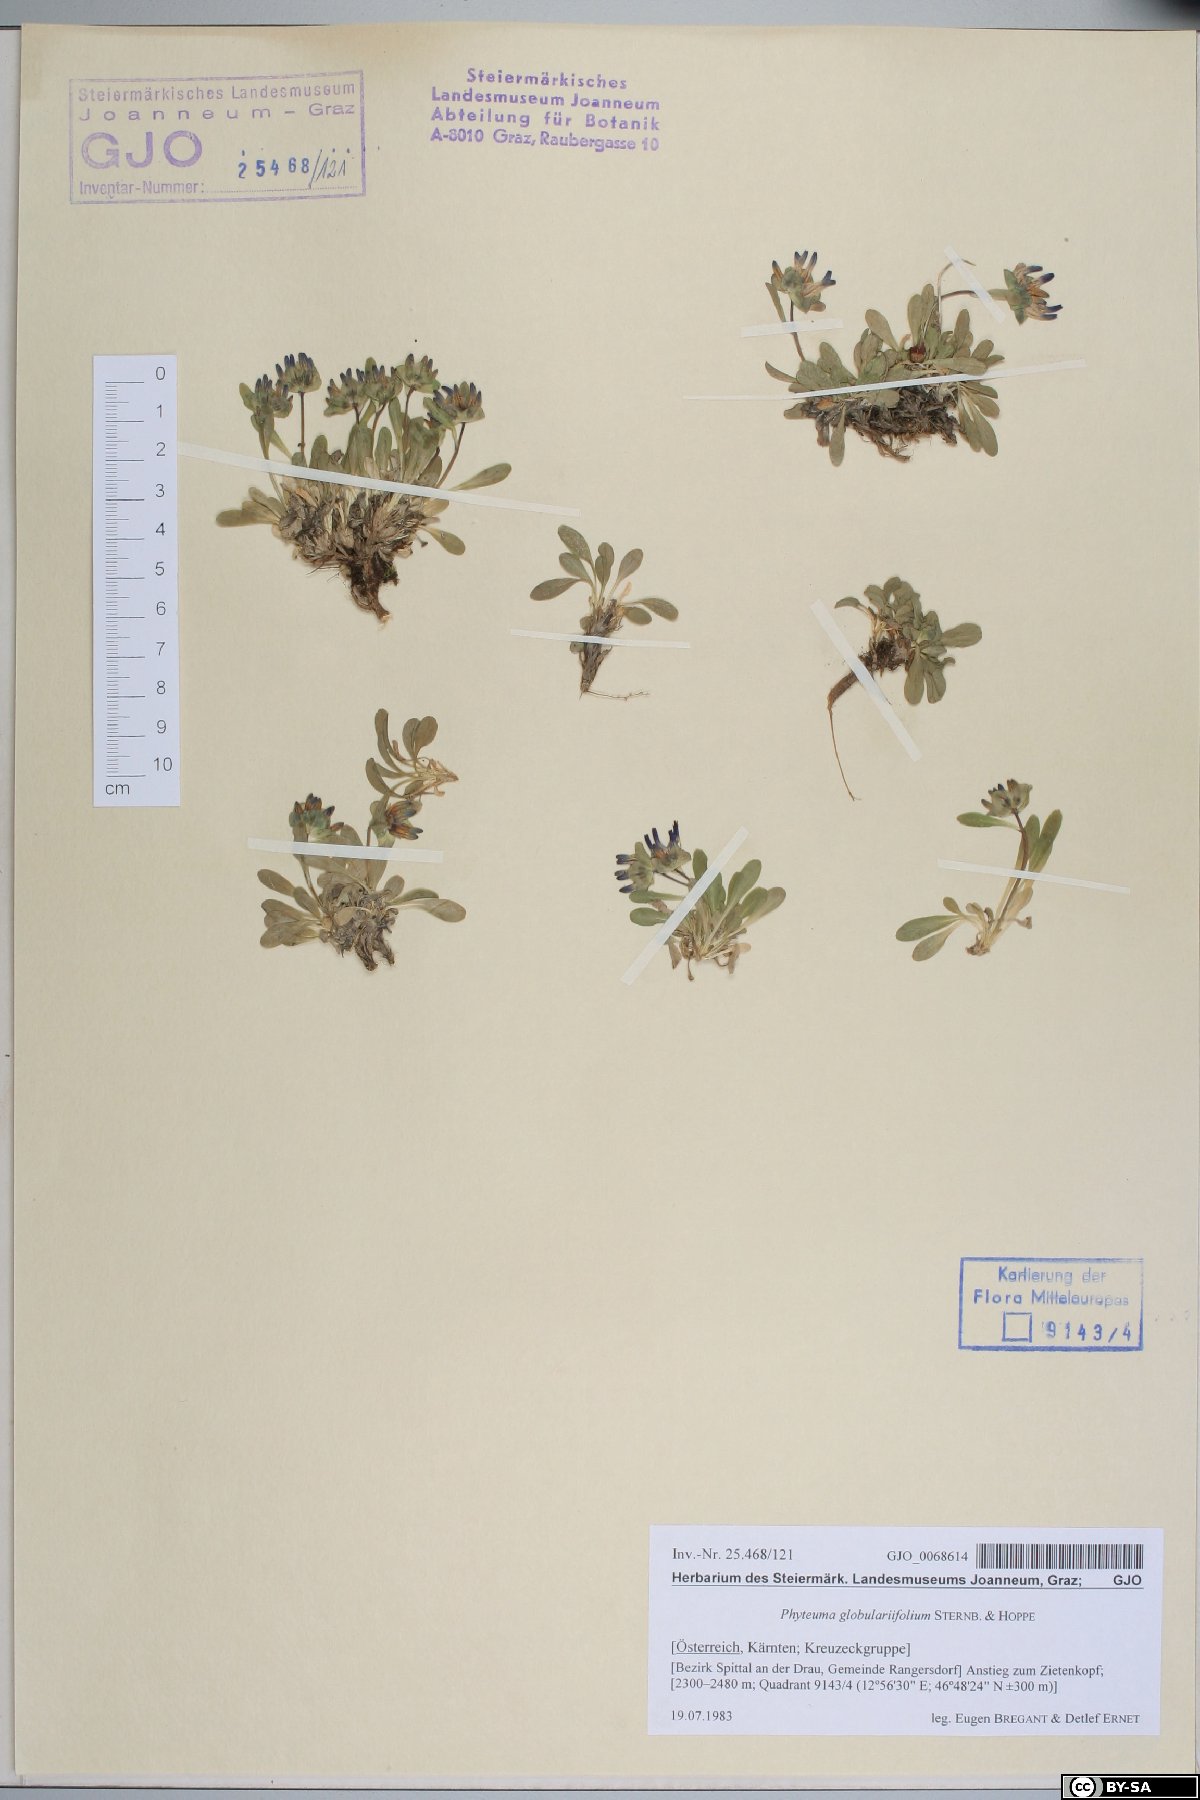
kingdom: Plantae
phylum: Tracheophyta
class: Magnoliopsida
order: Asterales
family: Campanulaceae
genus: Phyteuma
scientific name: Phyteuma globulariifolium
